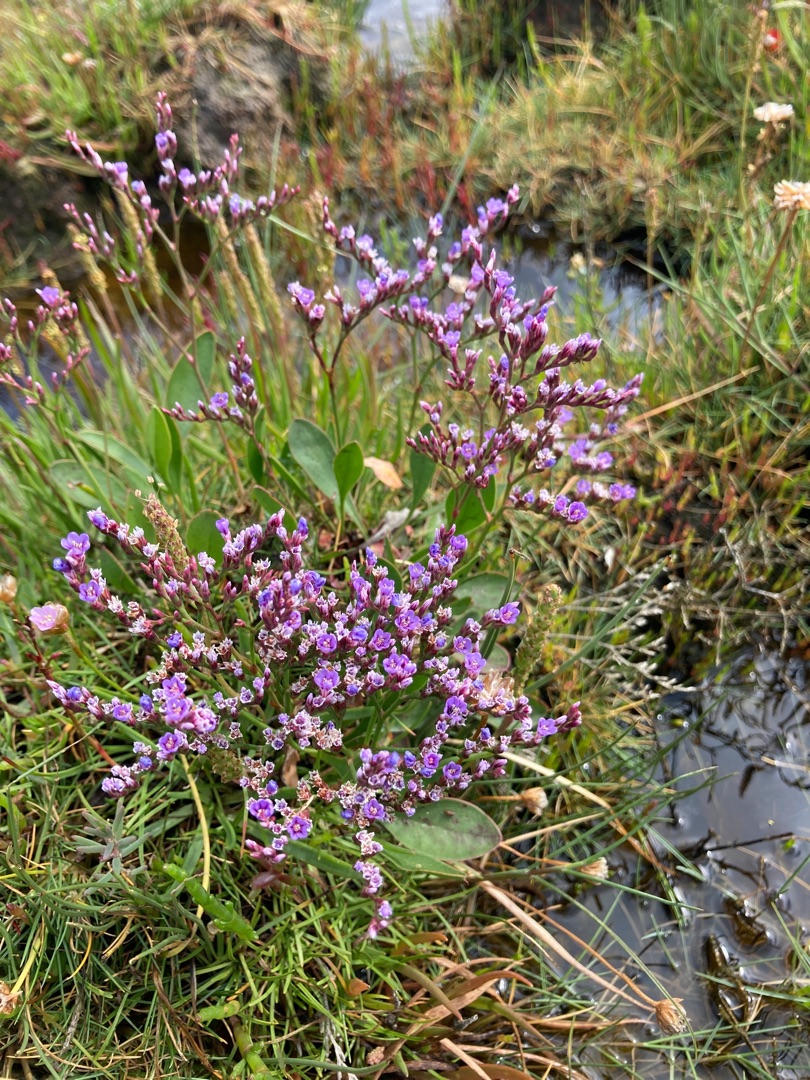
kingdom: Plantae
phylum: Tracheophyta
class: Magnoliopsida
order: Caryophyllales
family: Plumbaginaceae
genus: Limonium
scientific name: Limonium humile
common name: Lav hindebæger
